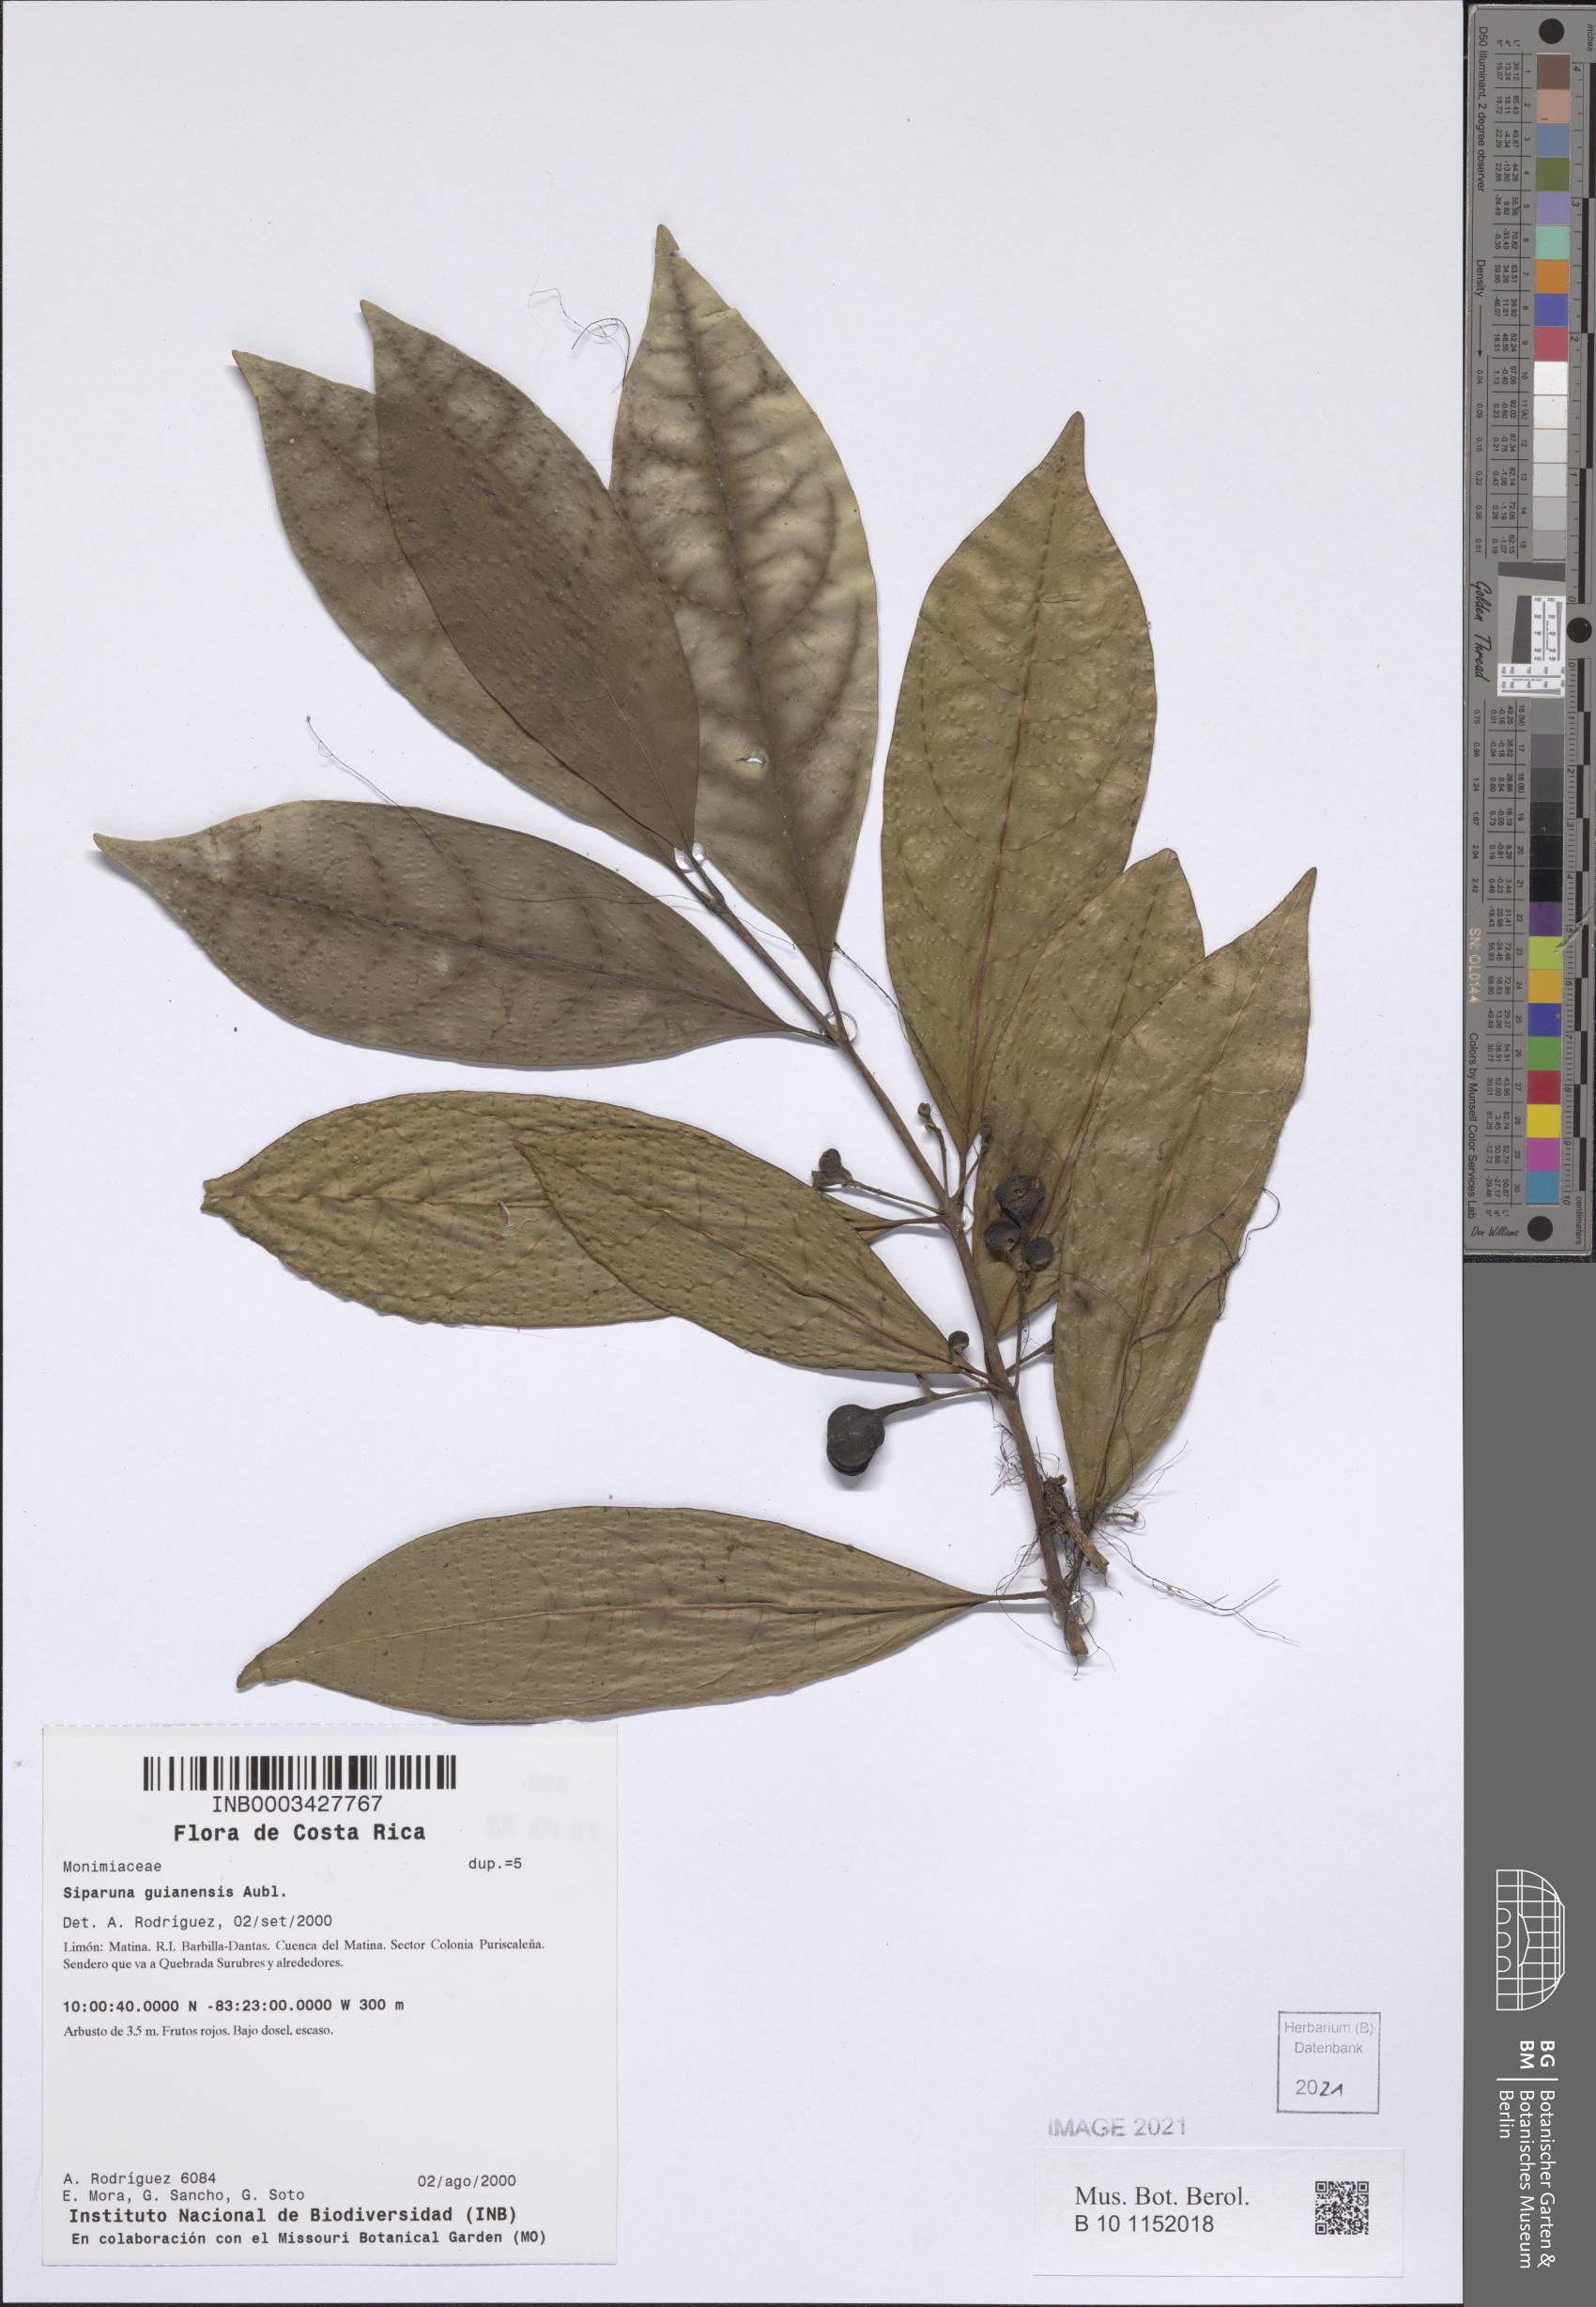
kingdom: Plantae
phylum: Tracheophyta
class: Magnoliopsida
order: Laurales
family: Siparunaceae
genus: Siparuna
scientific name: Siparuna guianensis
